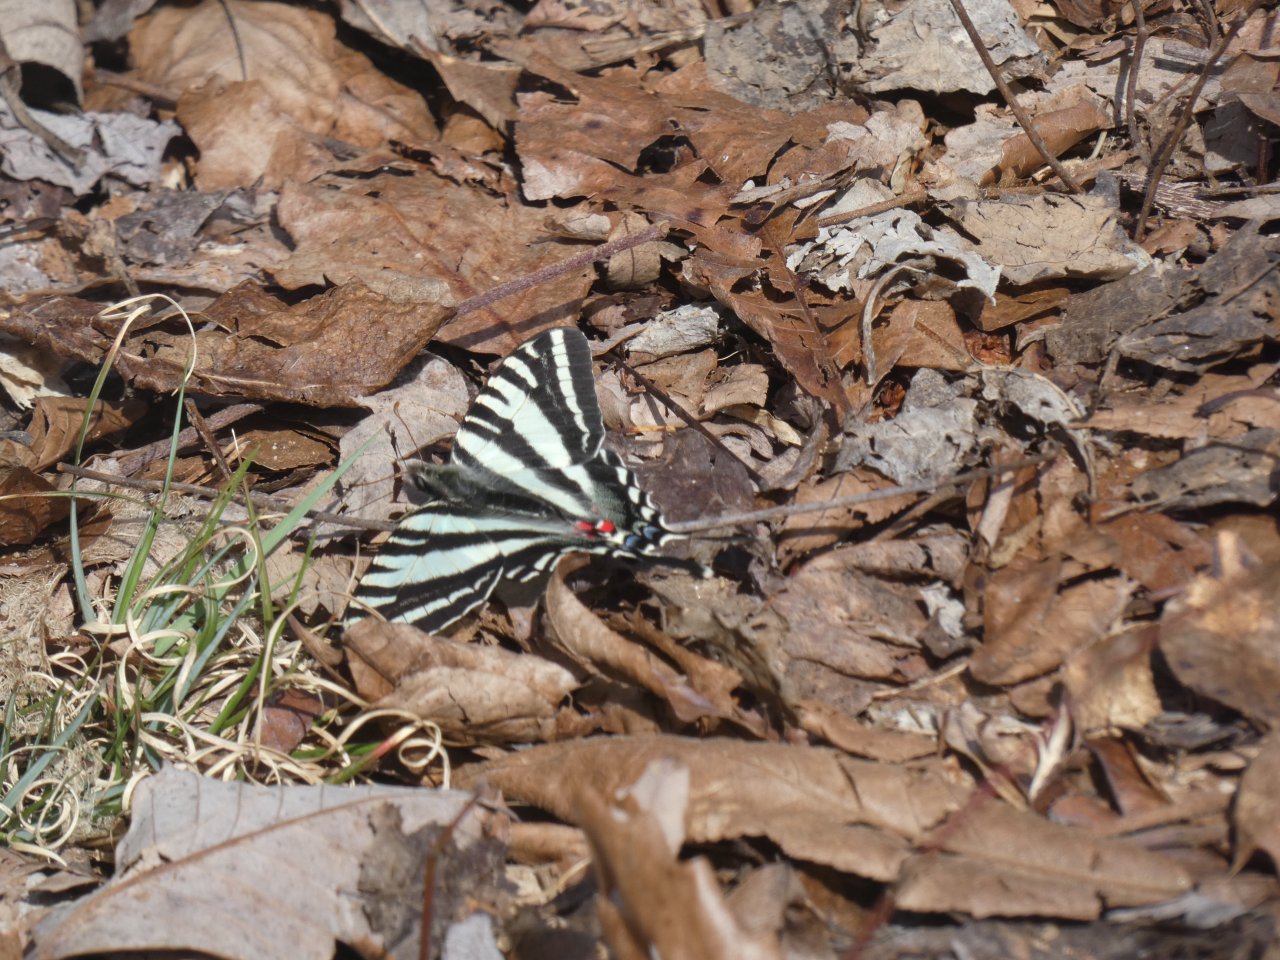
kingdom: Animalia
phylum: Arthropoda
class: Insecta
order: Lepidoptera
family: Papilionidae
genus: Protographium
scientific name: Protographium marcellus
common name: Zebra Swallowtail
